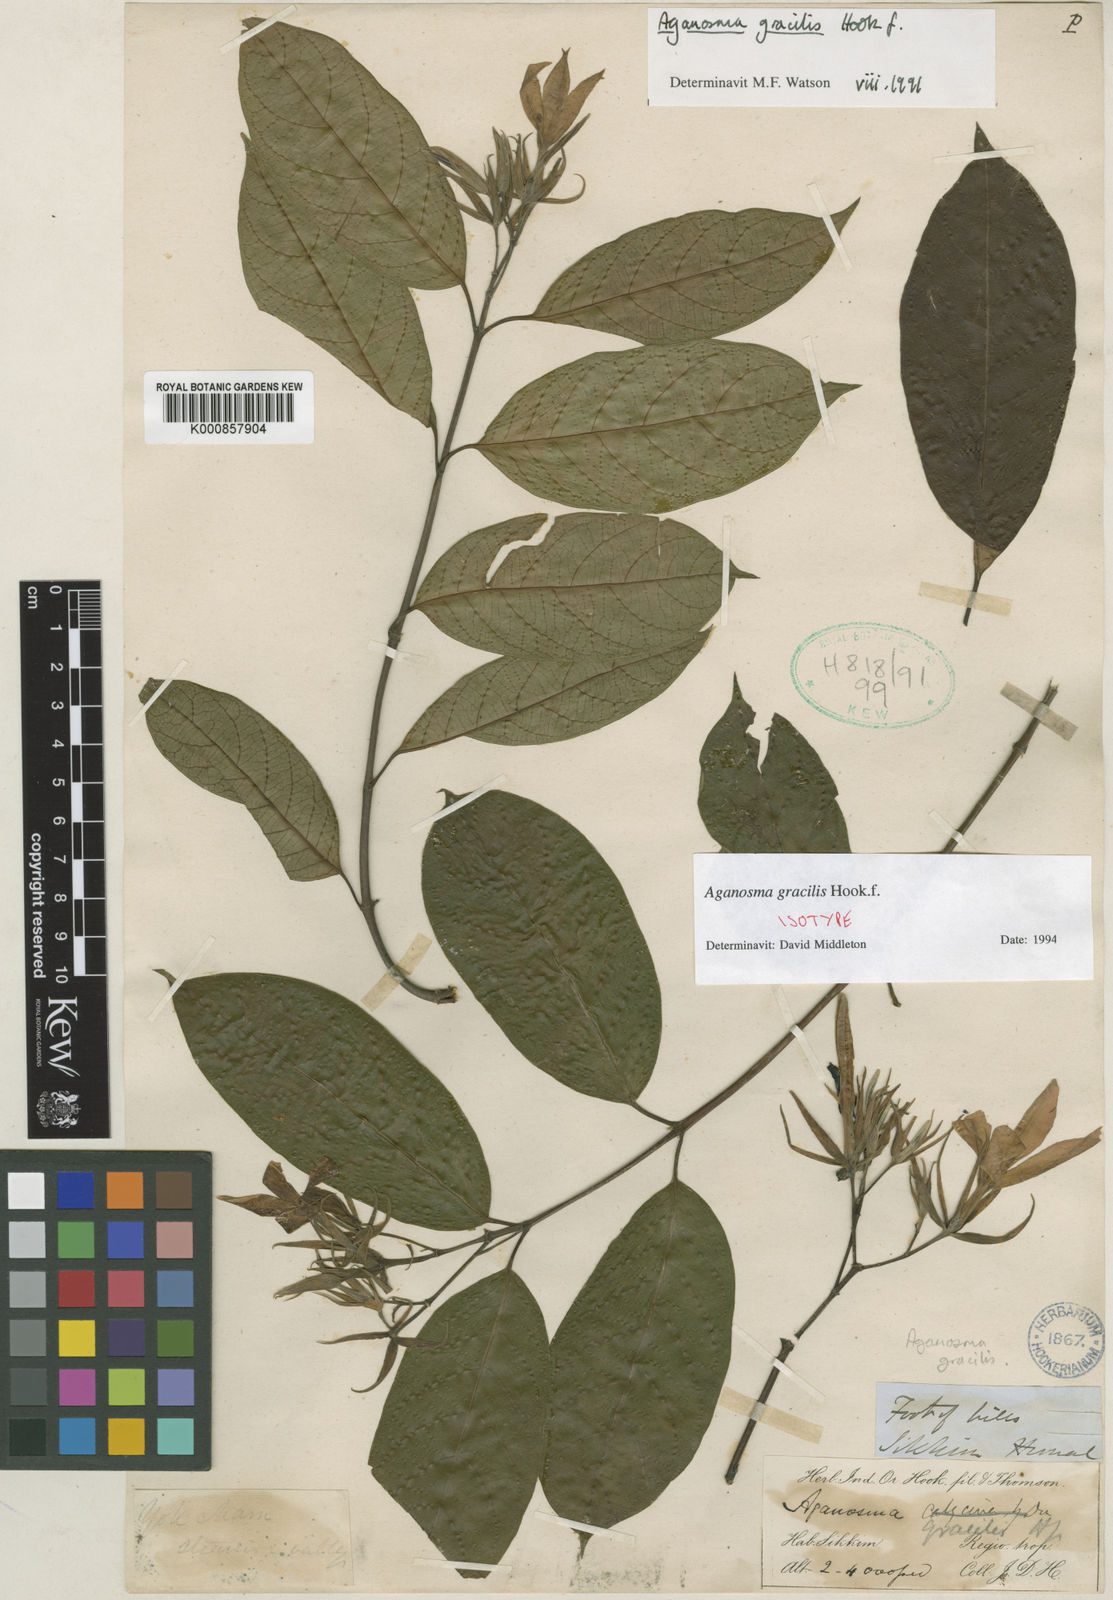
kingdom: Plantae
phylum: Tracheophyta
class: Magnoliopsida
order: Gentianales
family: Apocynaceae
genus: Aganosma
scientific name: Aganosma gracilis
